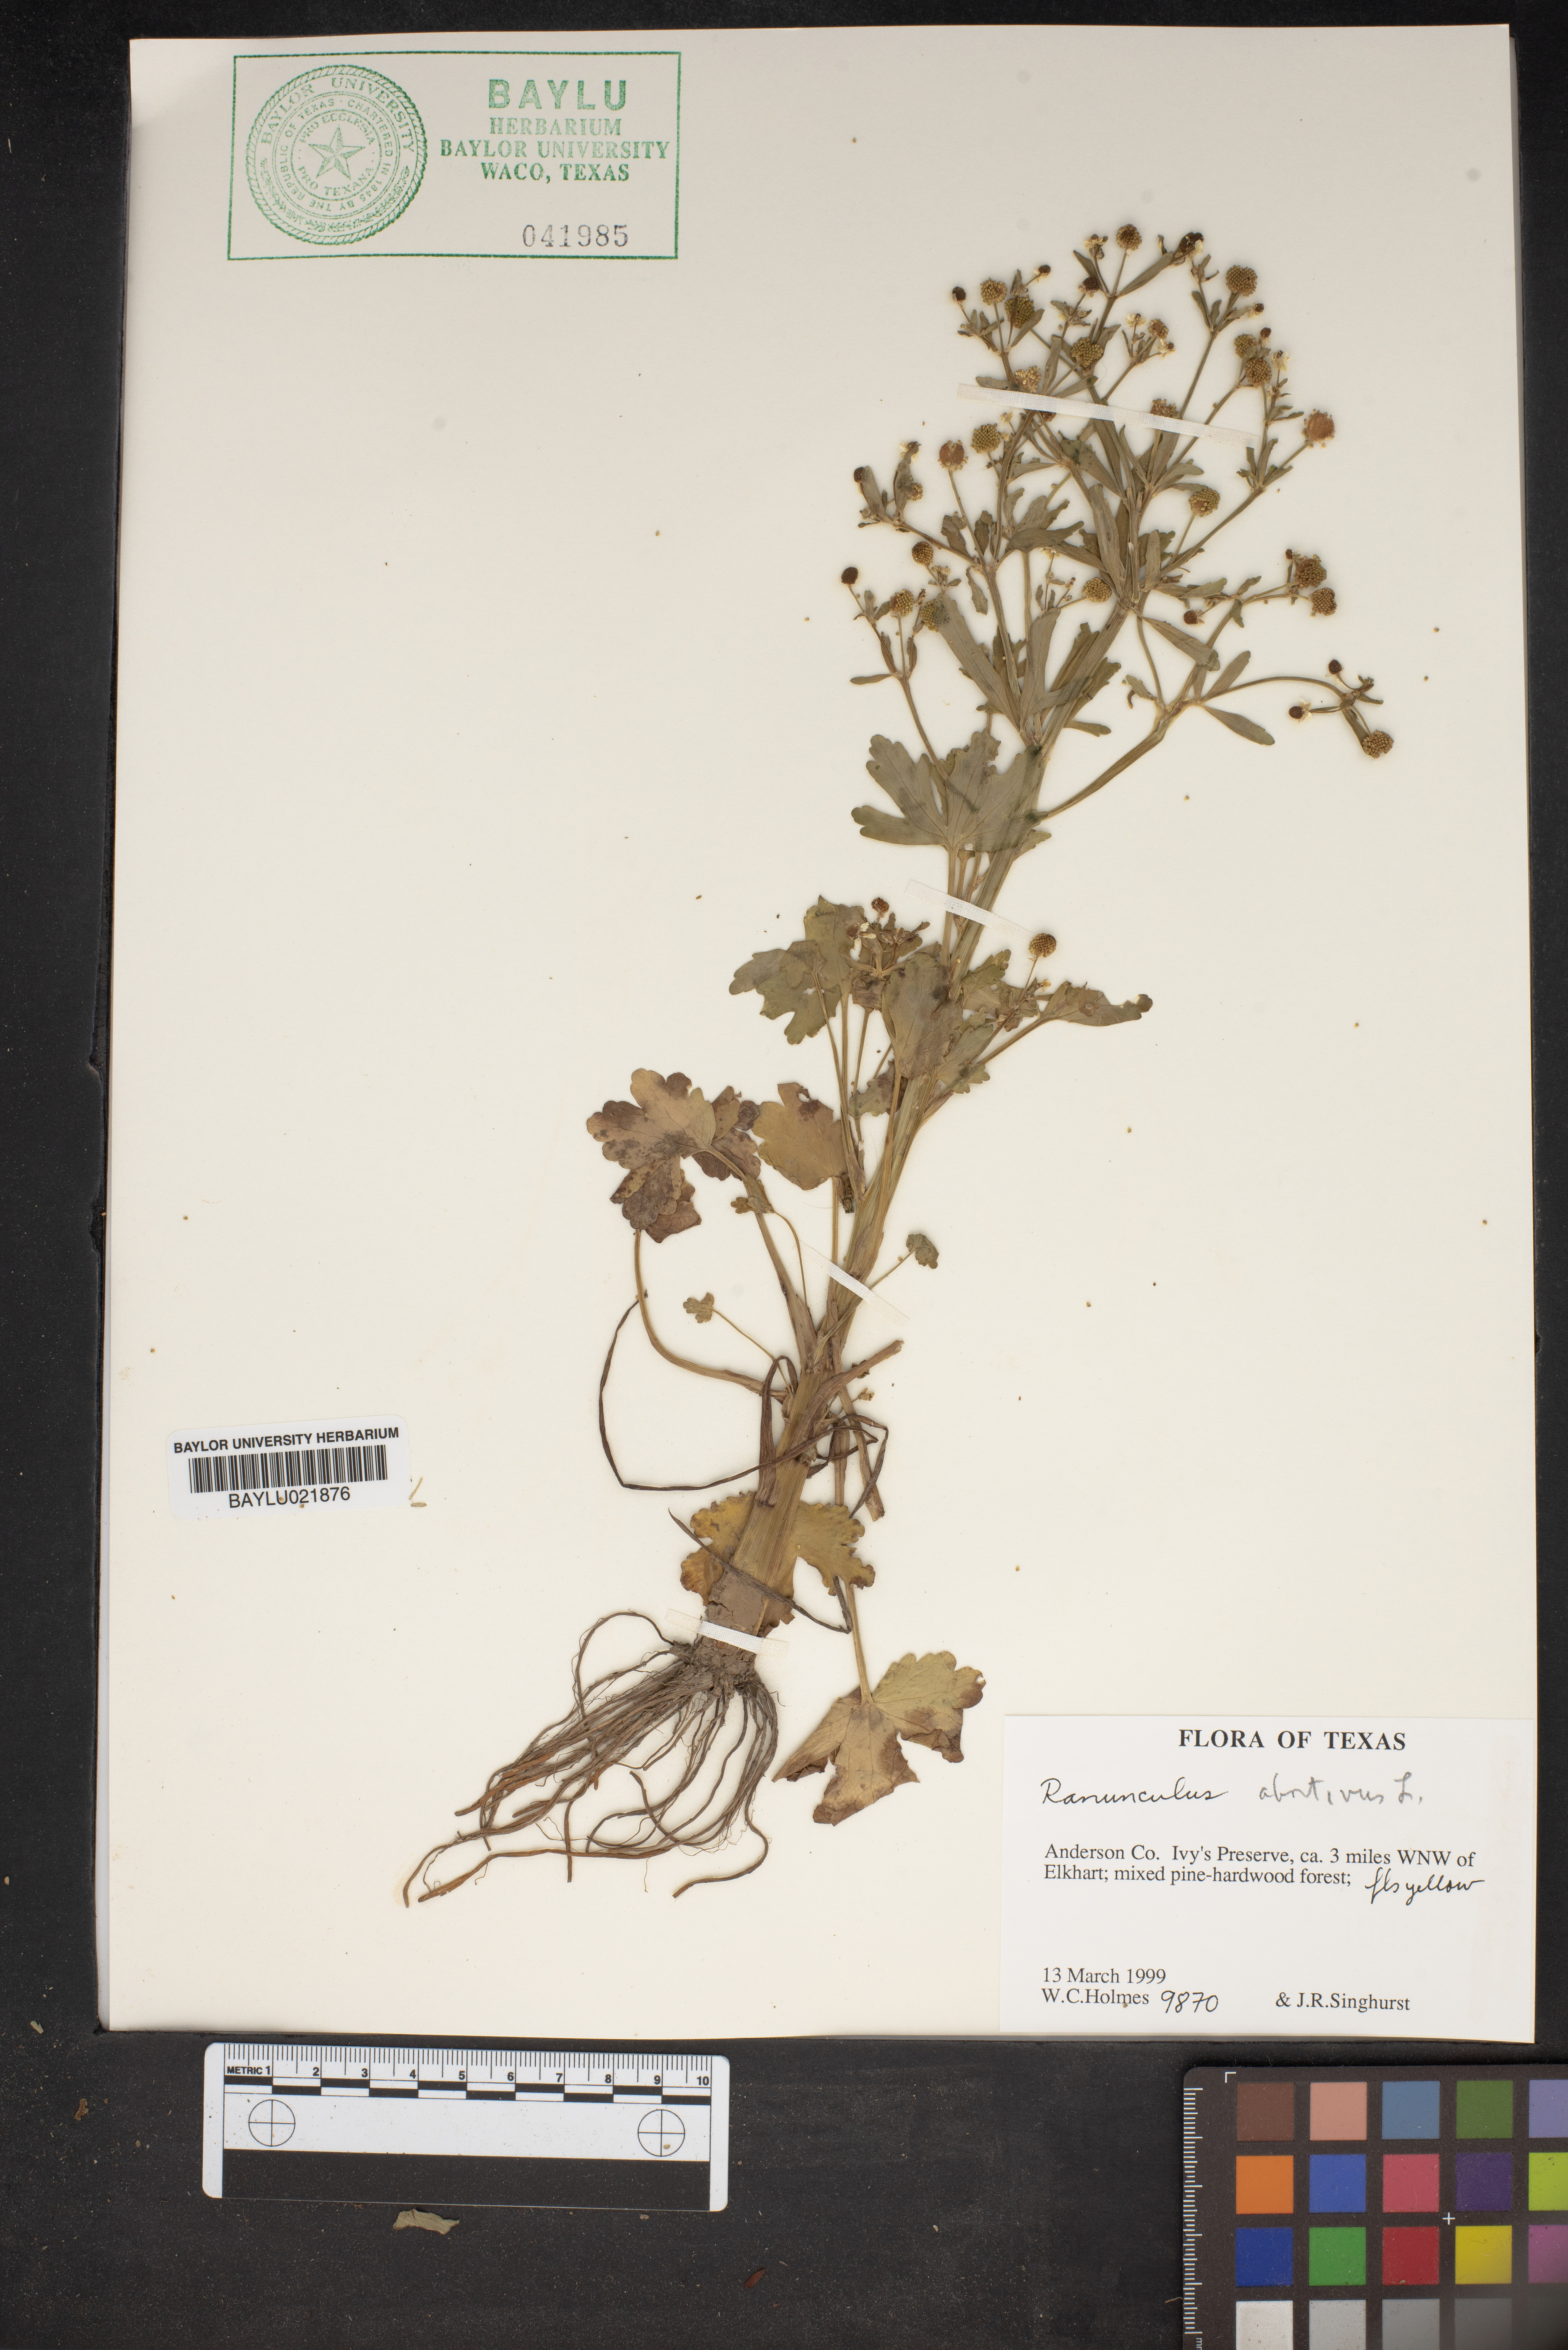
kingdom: Plantae
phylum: Tracheophyta
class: Magnoliopsida
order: Ranunculales
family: Ranunculaceae
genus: Ranunculus
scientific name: Ranunculus abortivus
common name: Early wood buttercup
